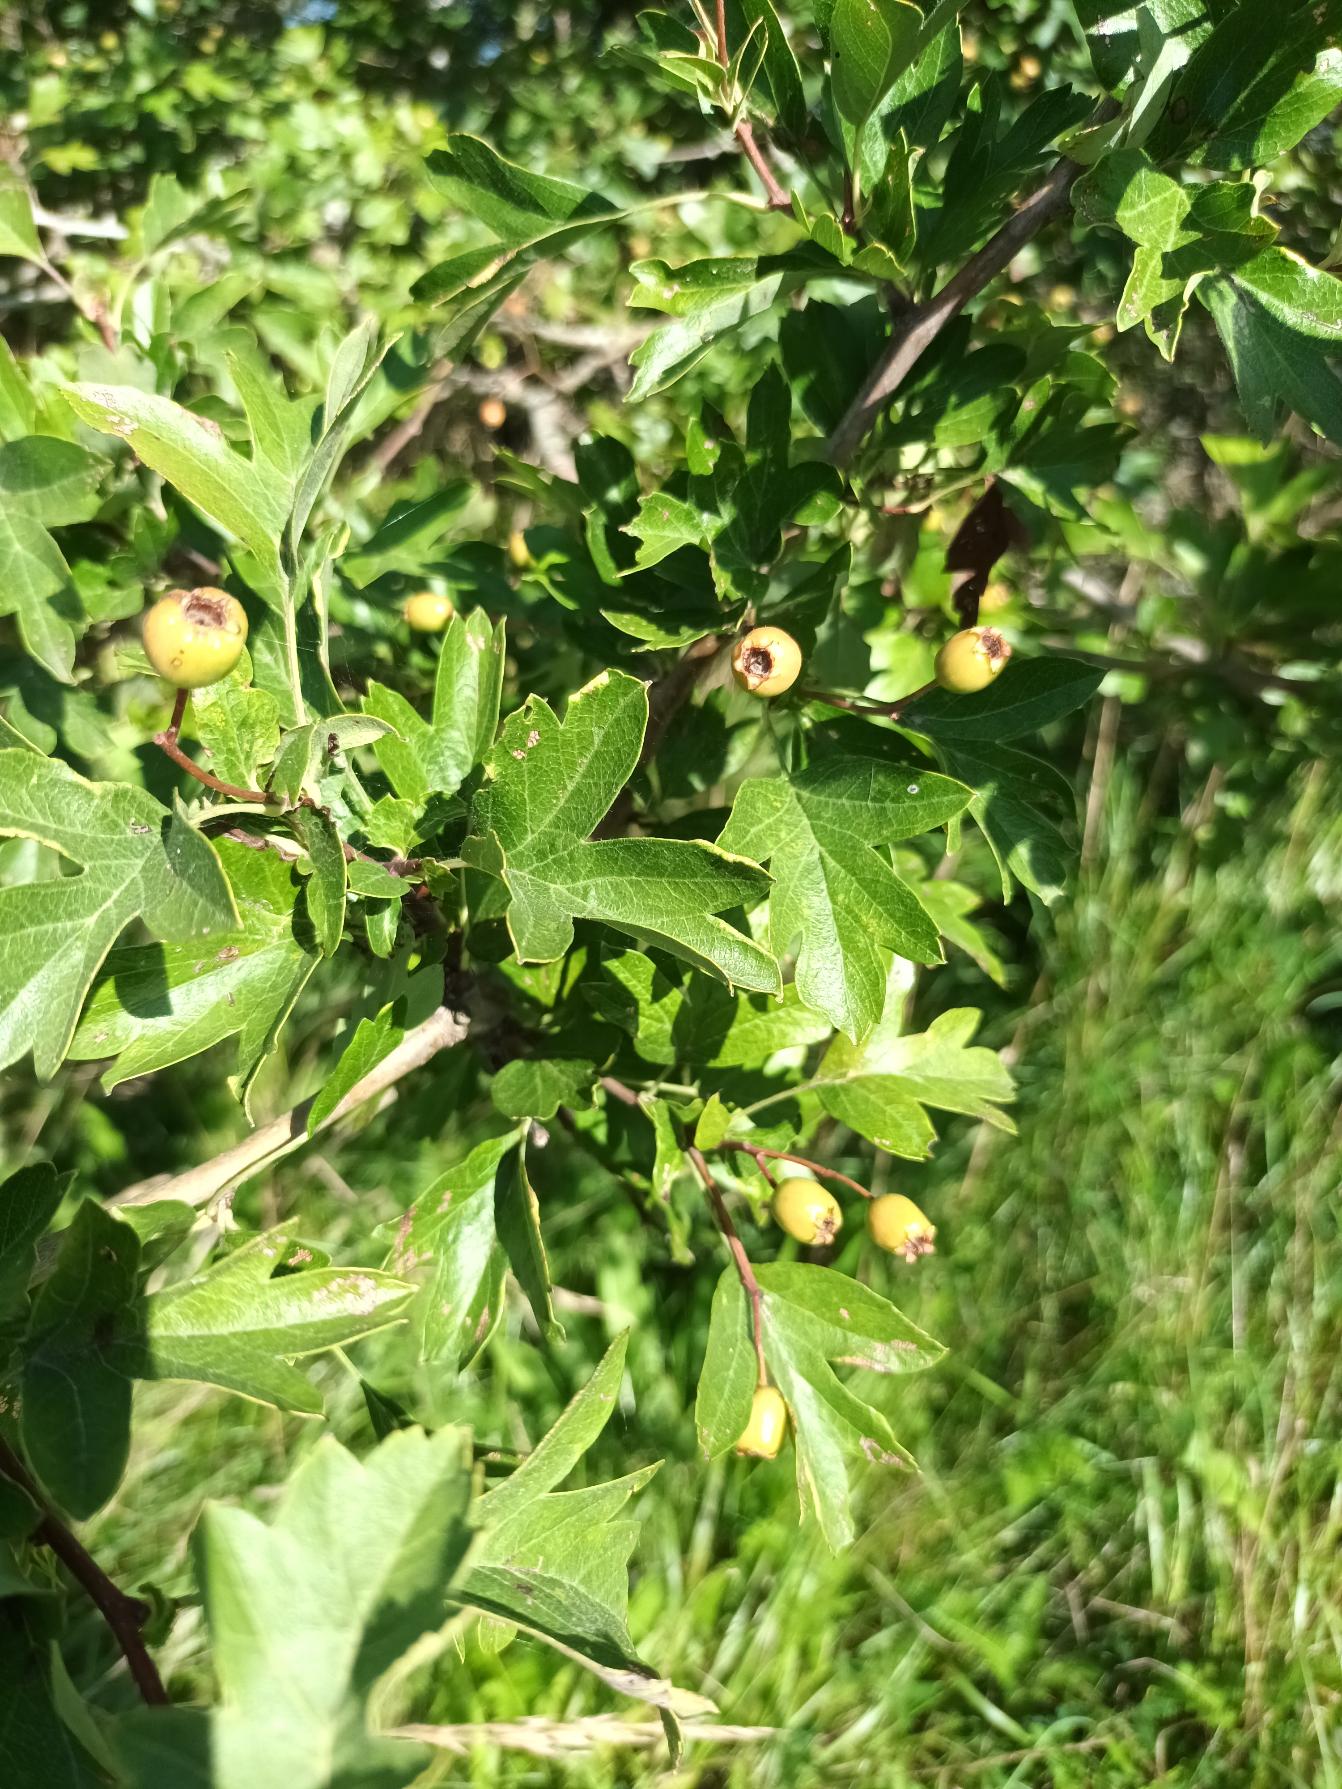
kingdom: Plantae
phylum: Tracheophyta
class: Magnoliopsida
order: Rosales
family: Rosaceae
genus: Crataegus
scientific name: Crataegus monogyna
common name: Engriflet hvidtjørn
